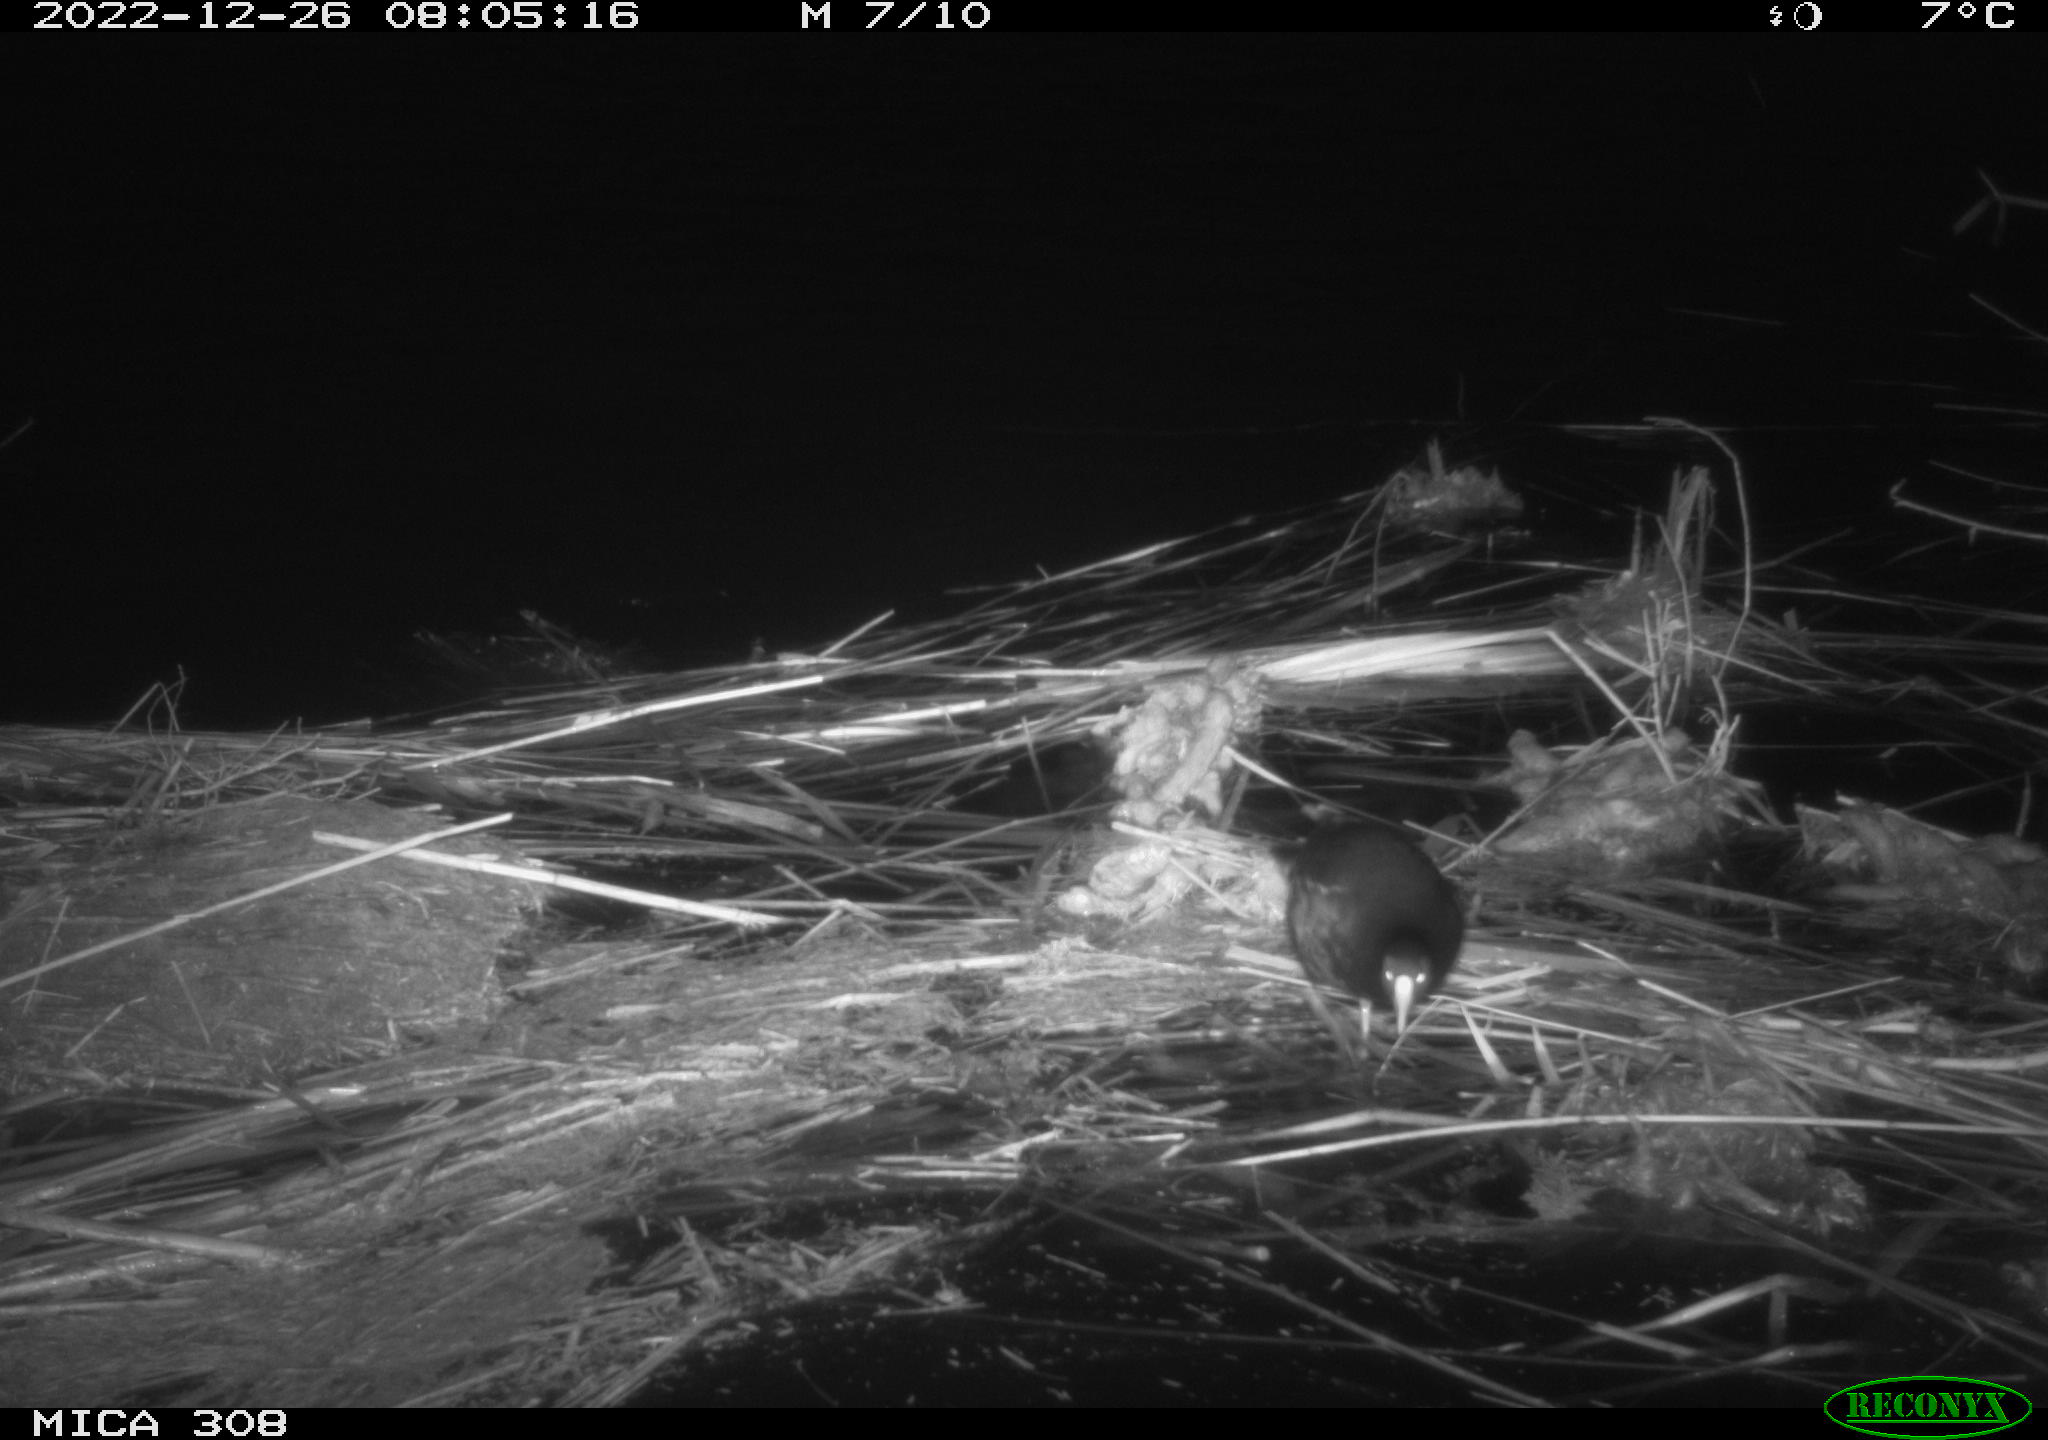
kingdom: Animalia
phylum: Chordata
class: Aves
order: Gruiformes
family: Rallidae
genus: Gallinula
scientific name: Gallinula chloropus
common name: Common moorhen
